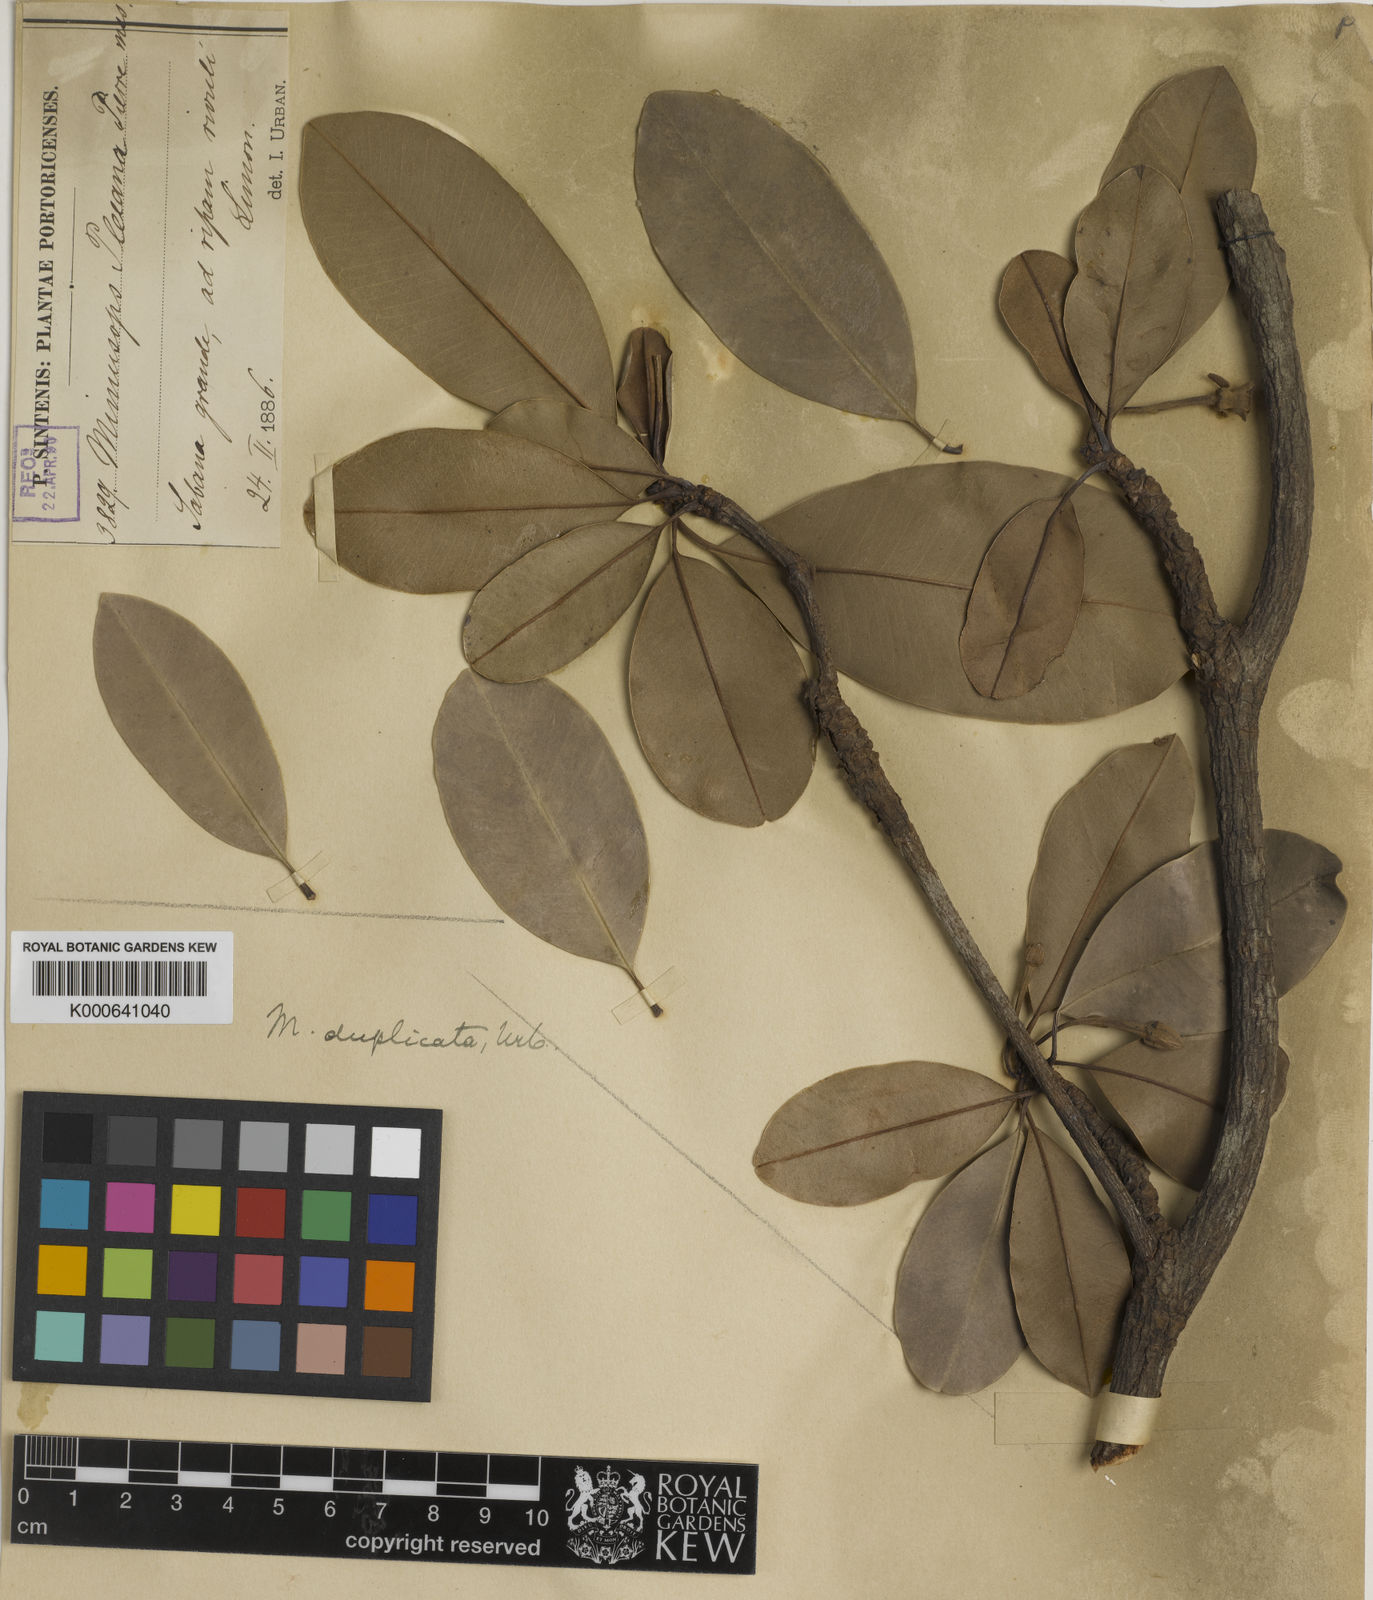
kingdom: Plantae
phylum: Tracheophyta
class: Magnoliopsida
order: Ericales
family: Sapotaceae
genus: Manilkara
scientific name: Manilkara pleeana
